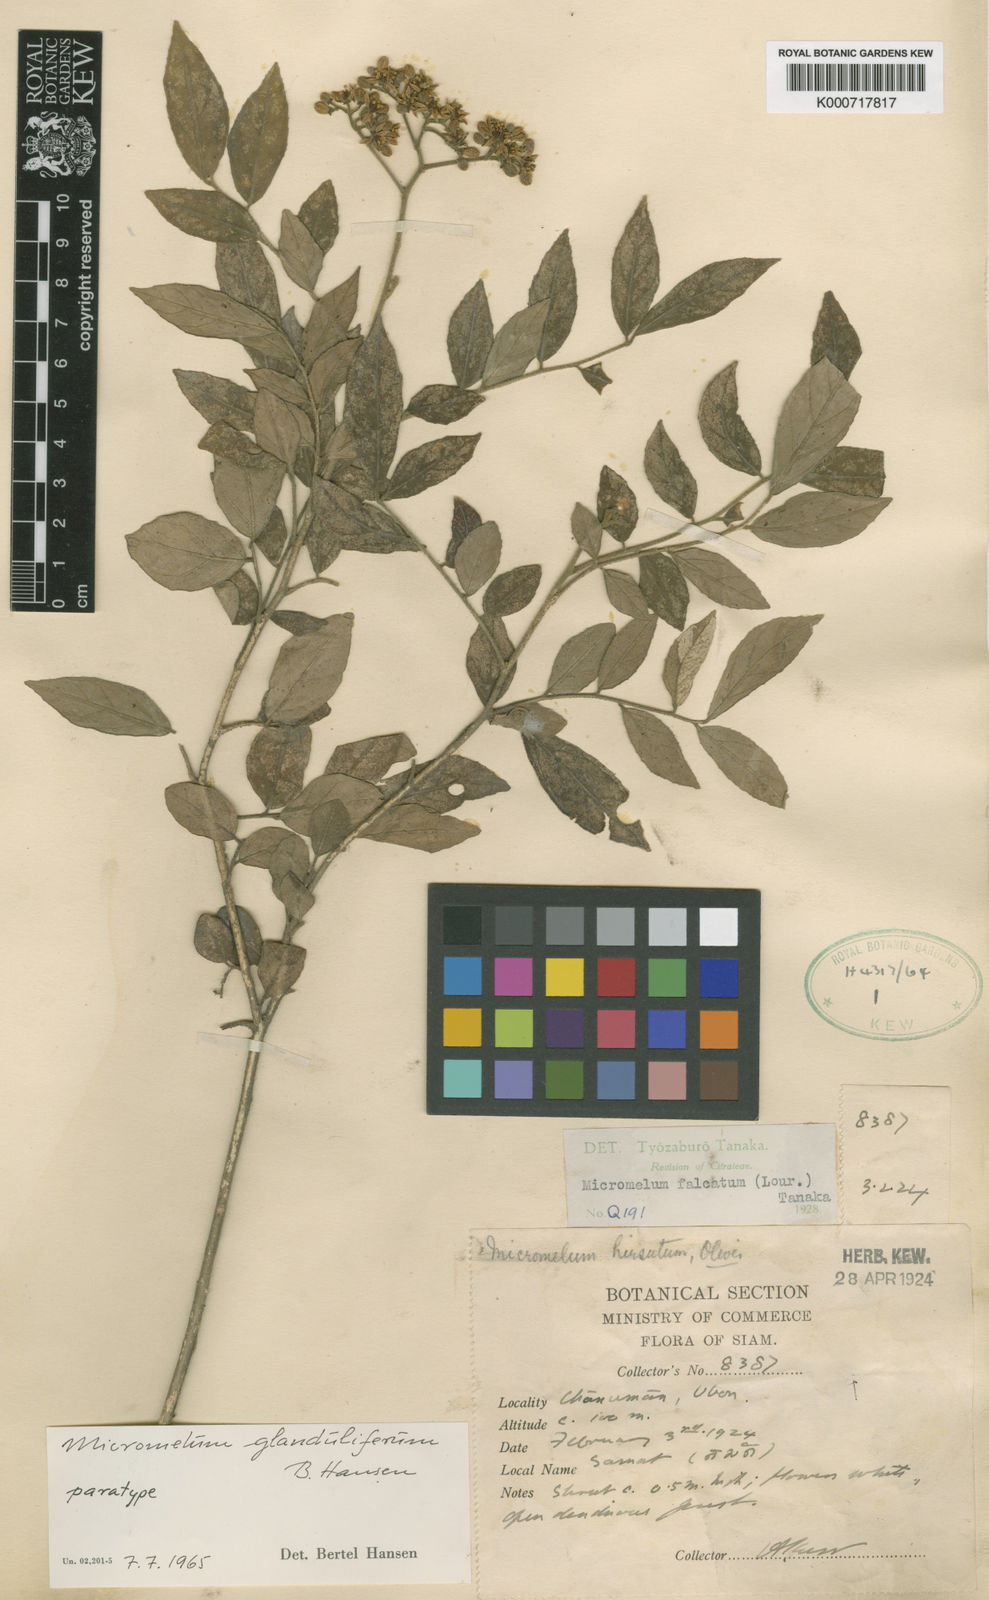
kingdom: Plantae
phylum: Tracheophyta
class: Magnoliopsida
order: Sapindales
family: Rutaceae
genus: Micromelum
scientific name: Micromelum glanduliferum
